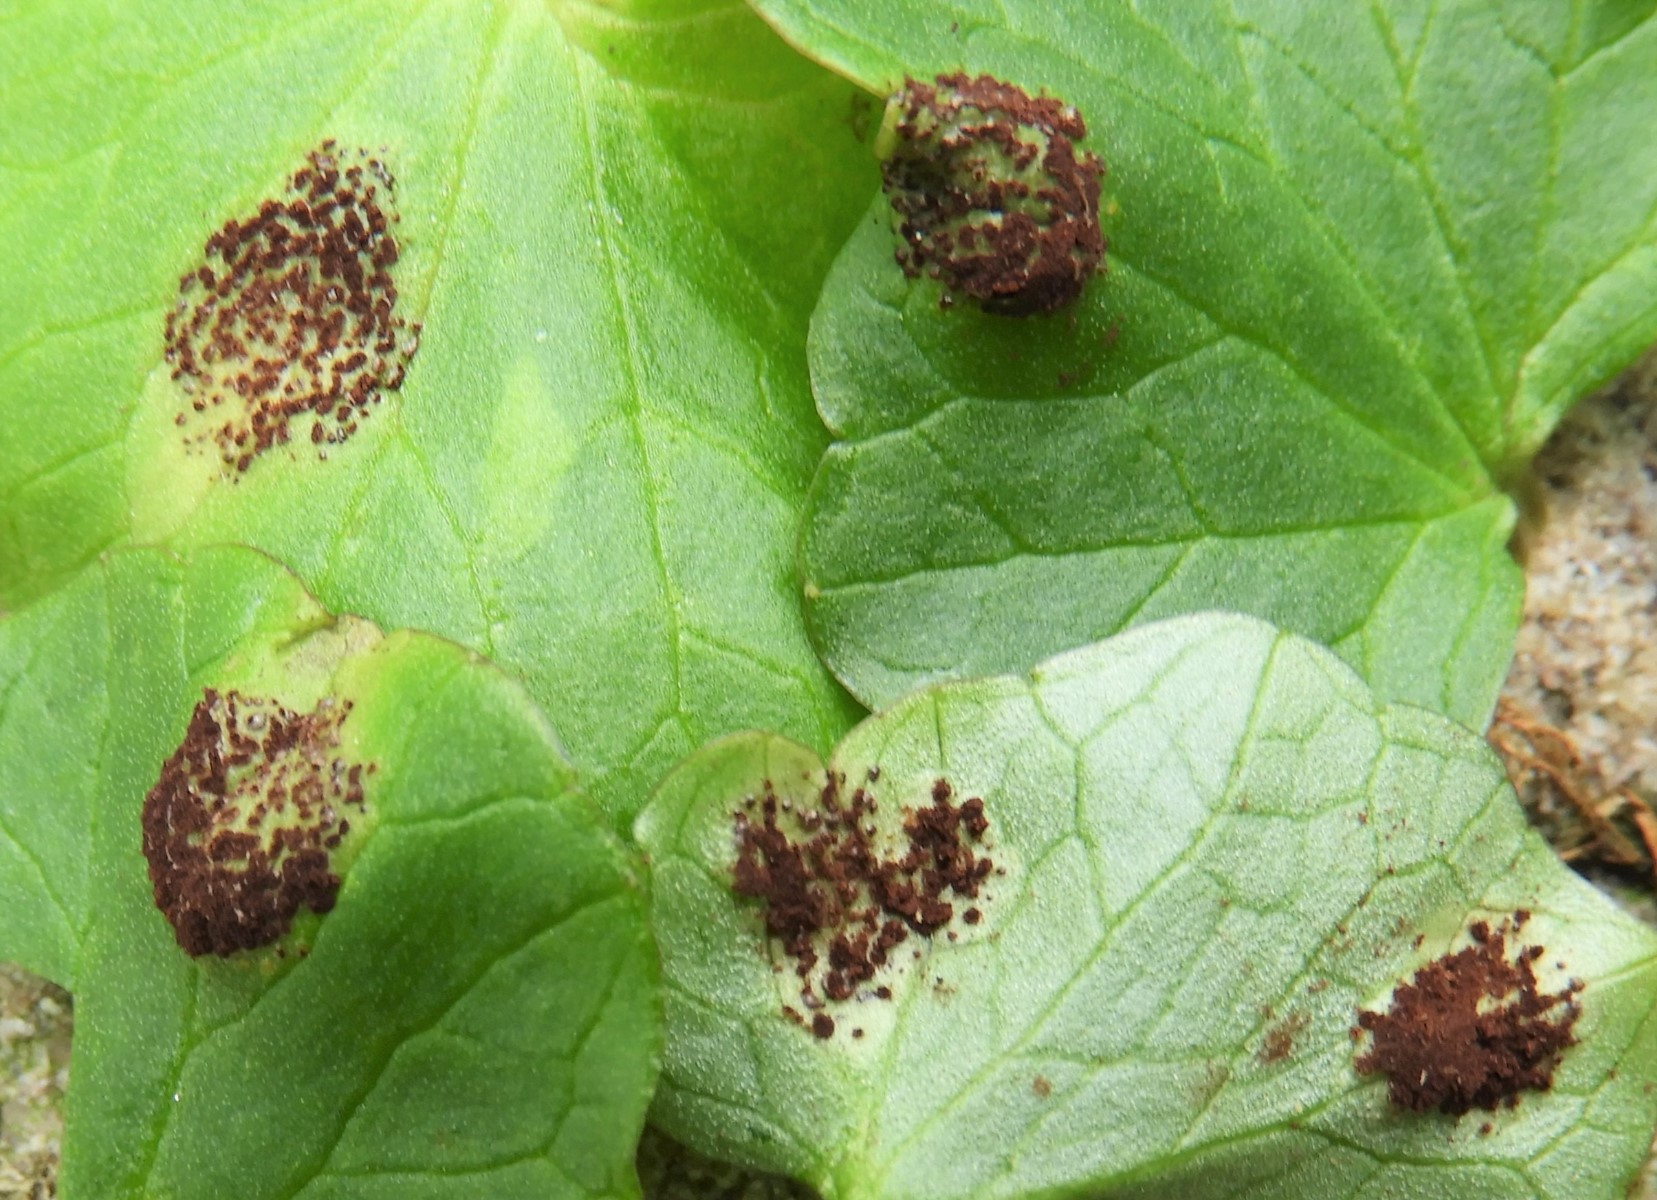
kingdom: Fungi
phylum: Basidiomycota
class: Pucciniomycetes
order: Pucciniales
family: Pucciniaceae
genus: Uromyces
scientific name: Uromyces ficariae
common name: vorterod-encellerust
